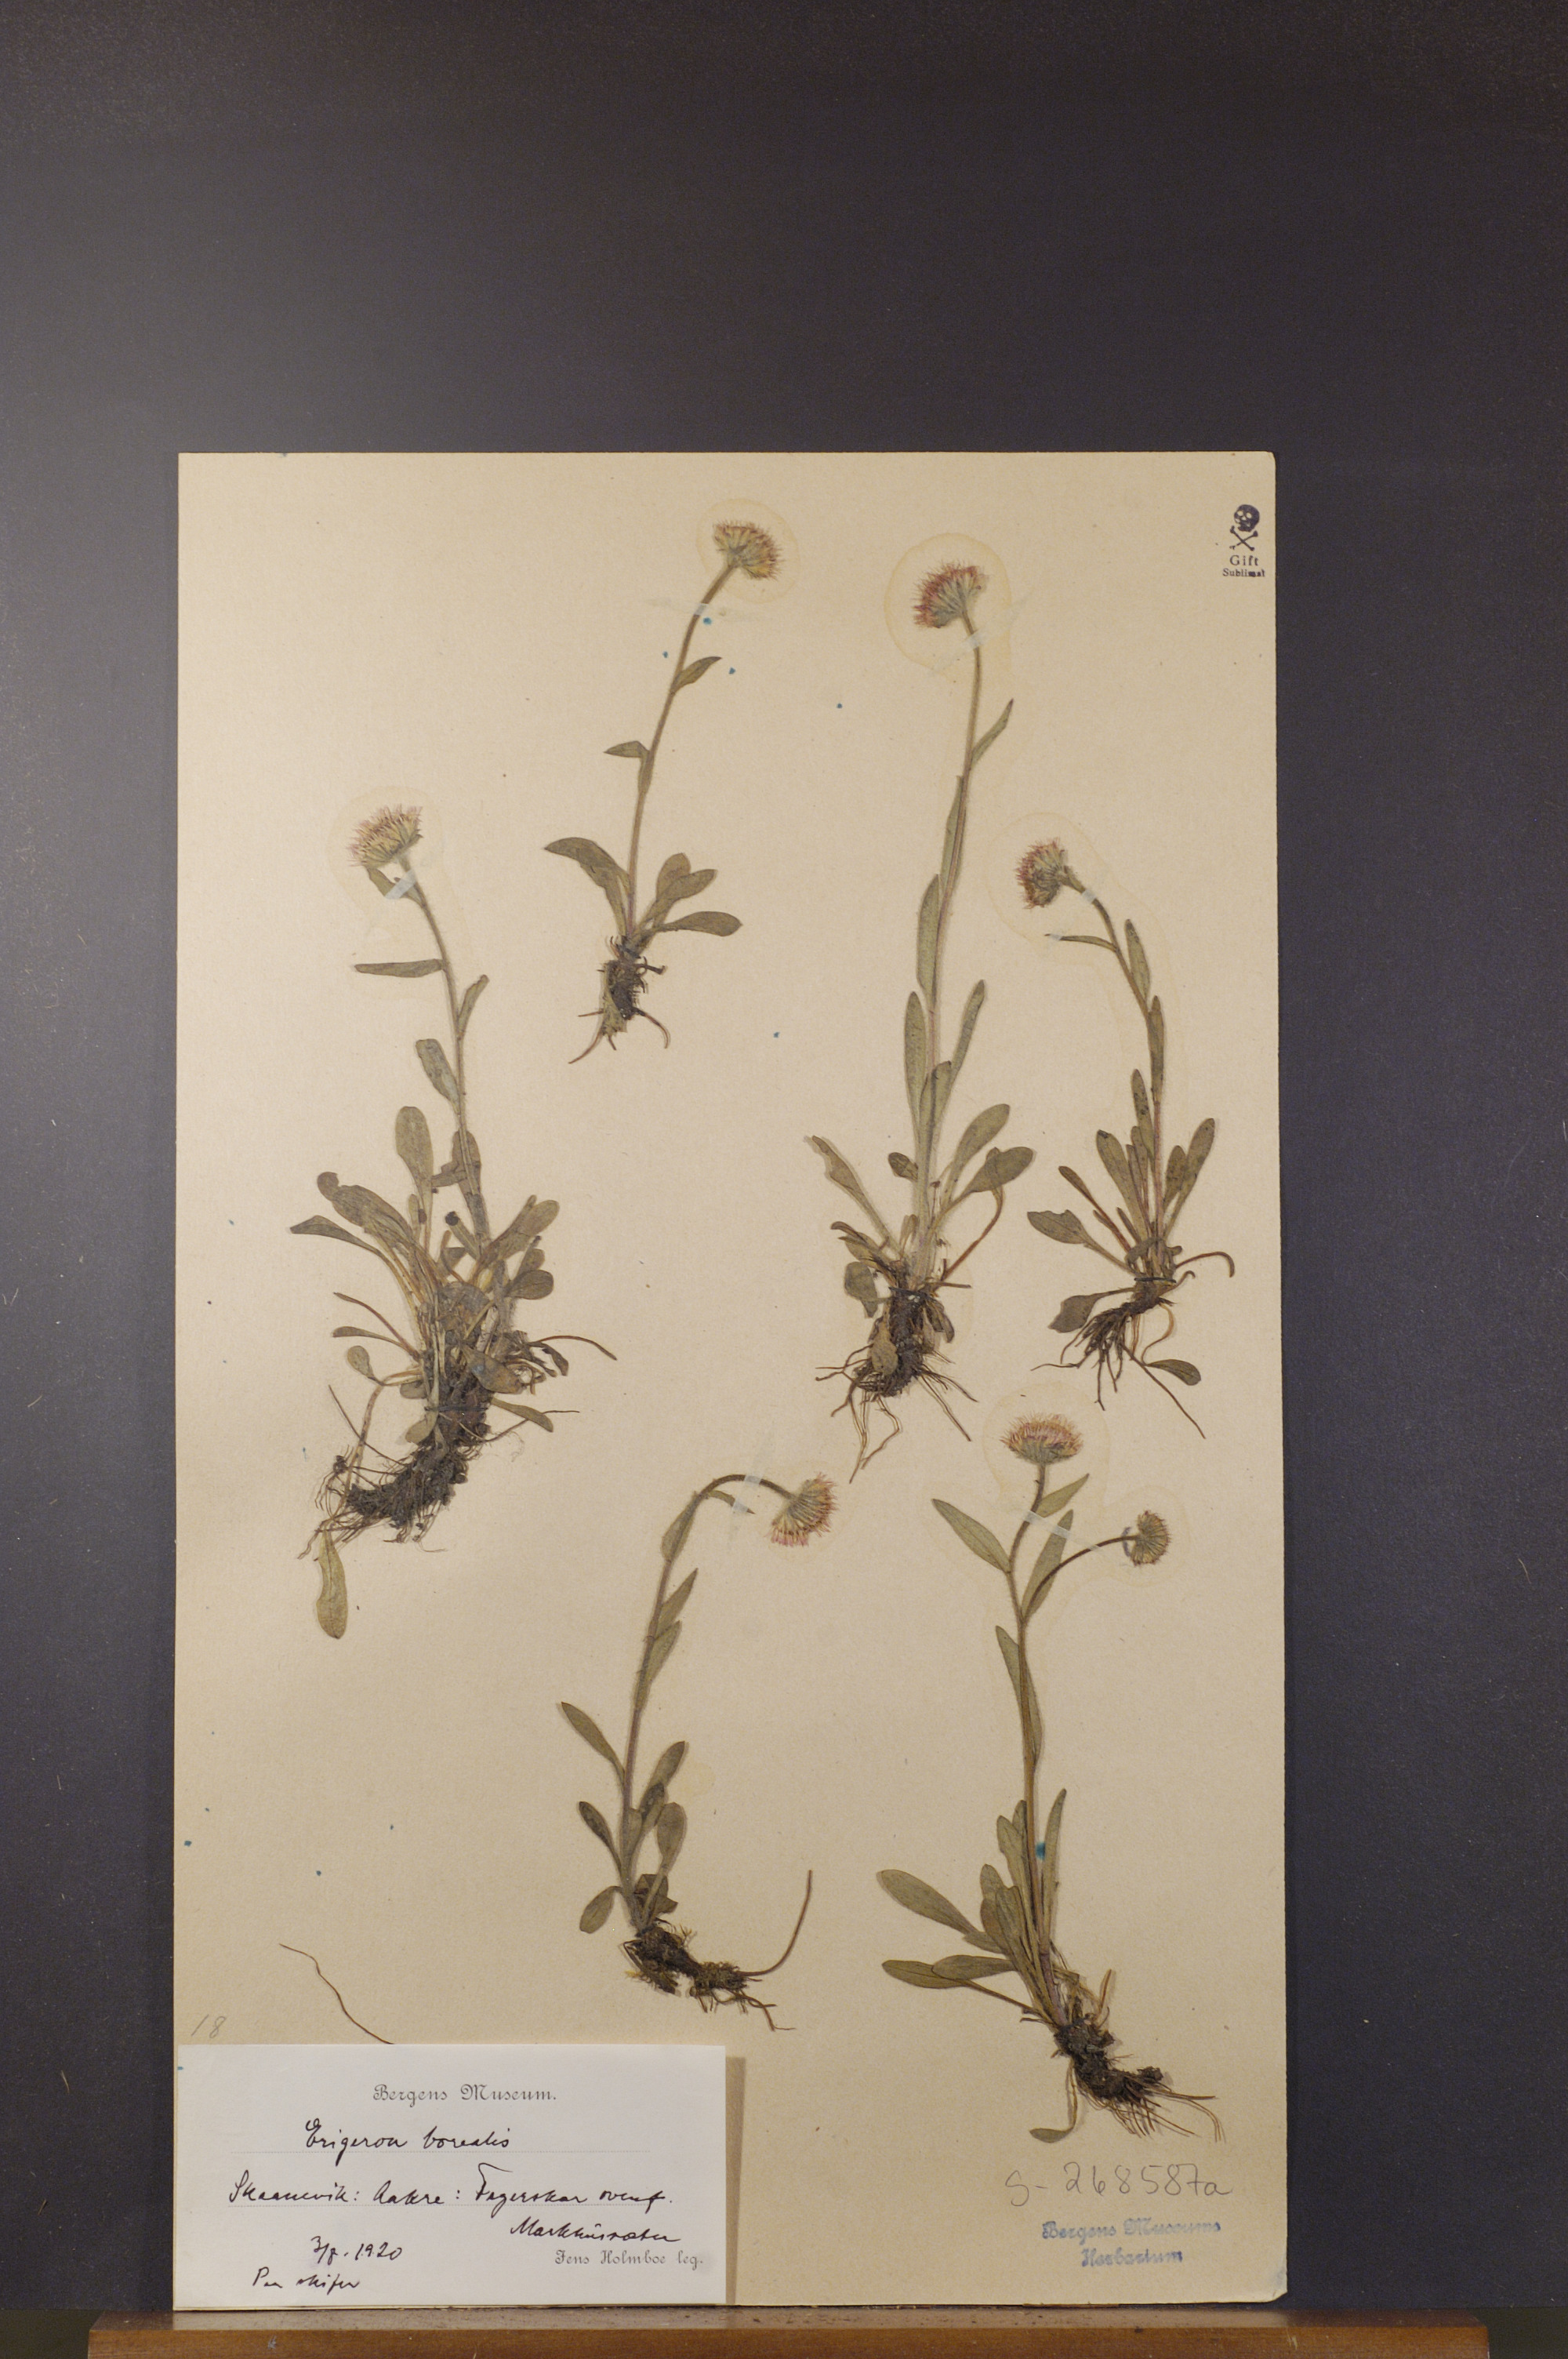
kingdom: Plantae
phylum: Tracheophyta
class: Magnoliopsida
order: Asterales
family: Asteraceae
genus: Erigeron
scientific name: Erigeron borealis
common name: Alpine fleabane
